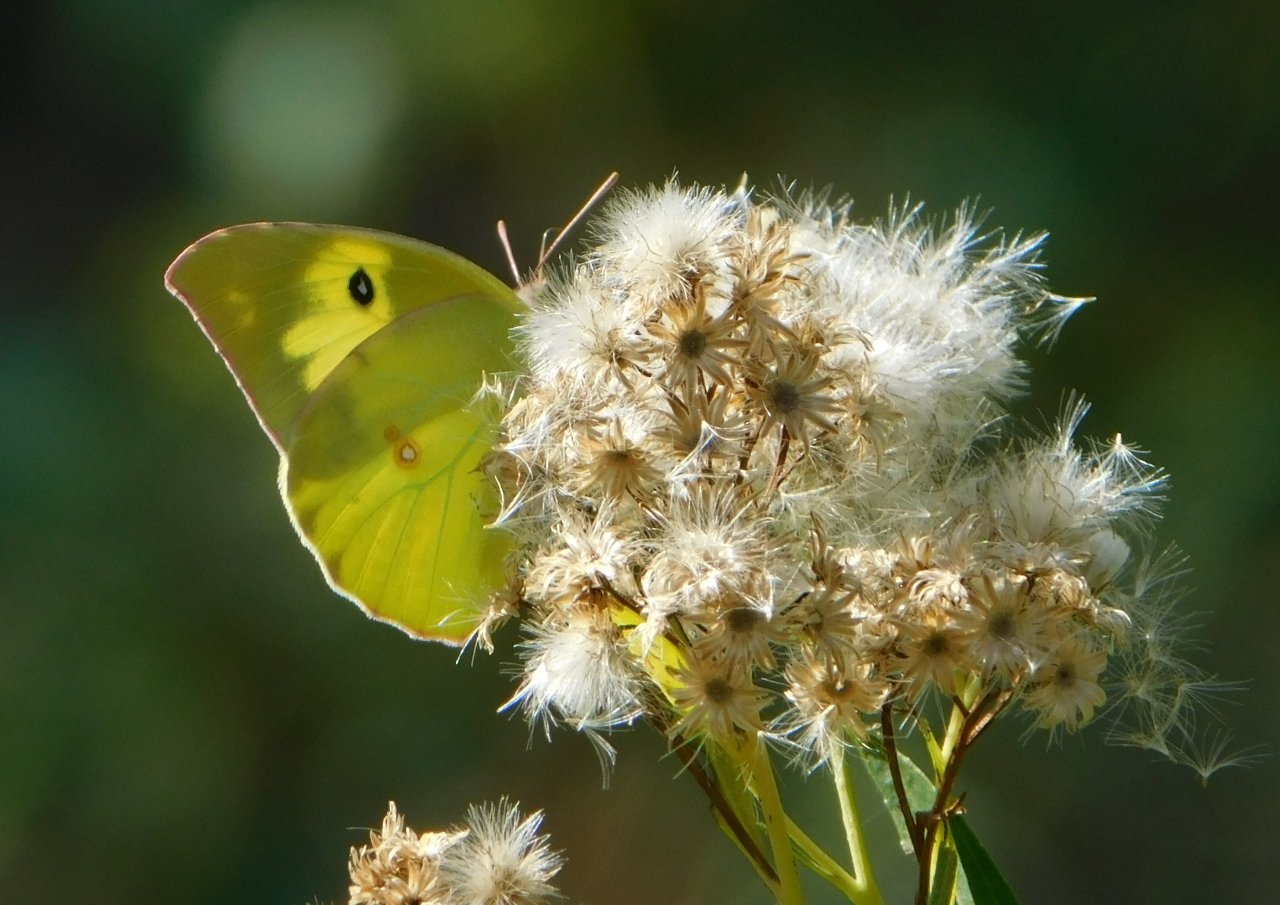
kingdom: Animalia
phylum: Arthropoda
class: Insecta
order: Lepidoptera
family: Pieridae
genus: Zerene
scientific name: Zerene cesonia
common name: Southern Dogface
